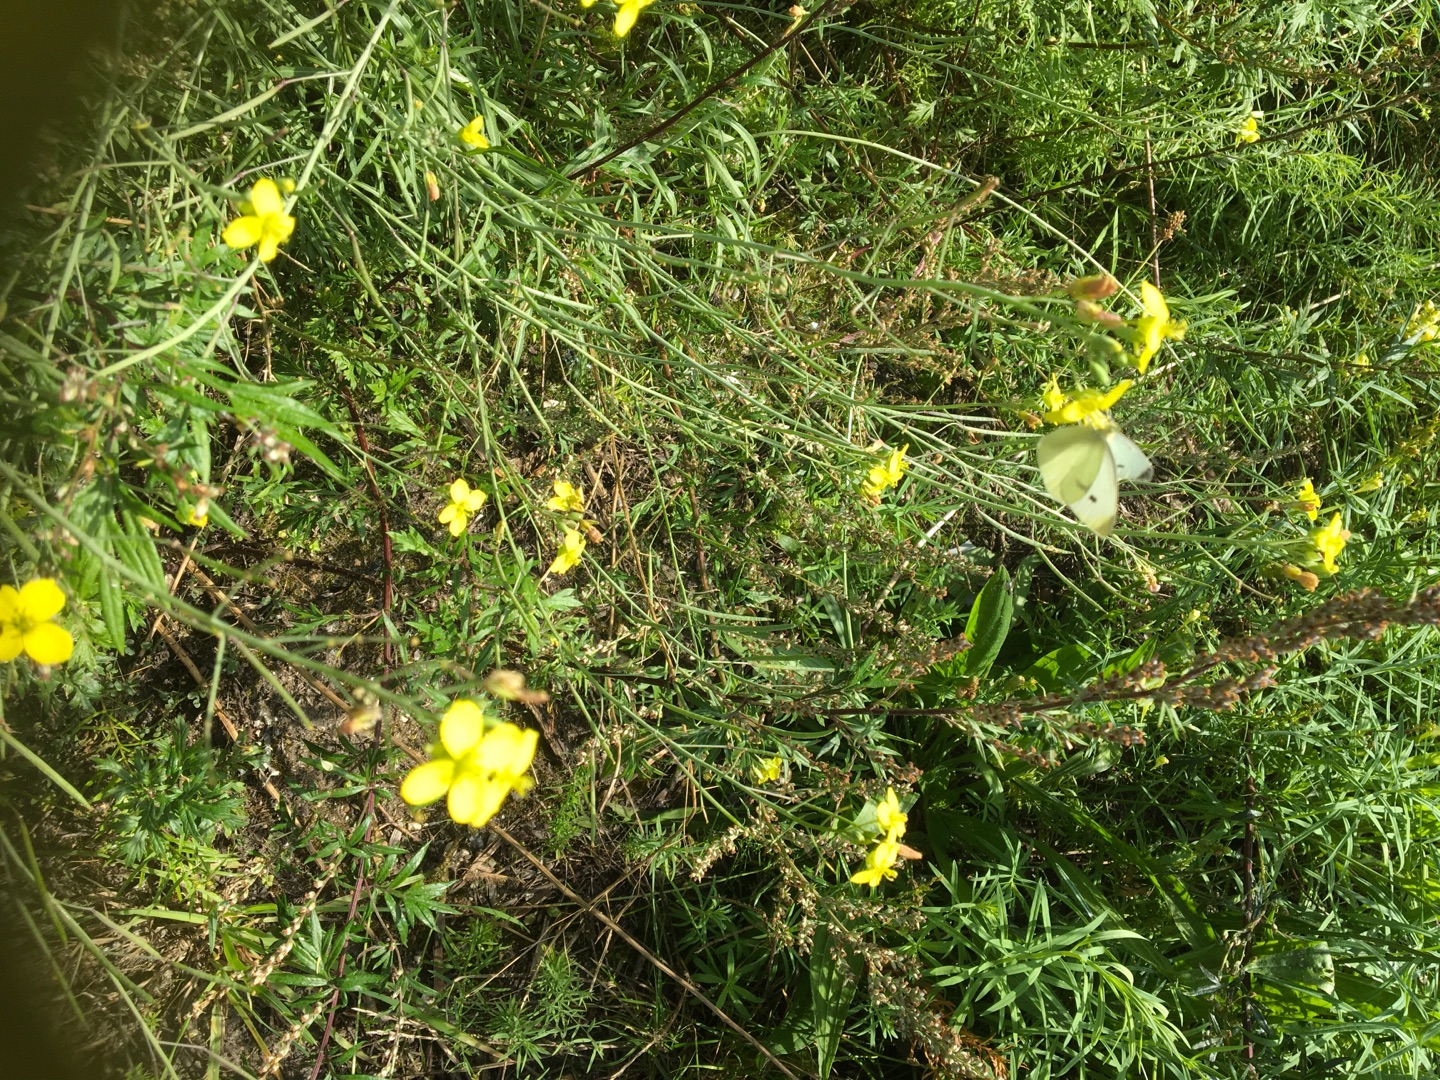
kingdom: Animalia
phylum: Arthropoda
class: Insecta
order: Lepidoptera
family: Pieridae
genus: Pieris
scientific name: Pieris rapae
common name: Lille kålsommerfugl
